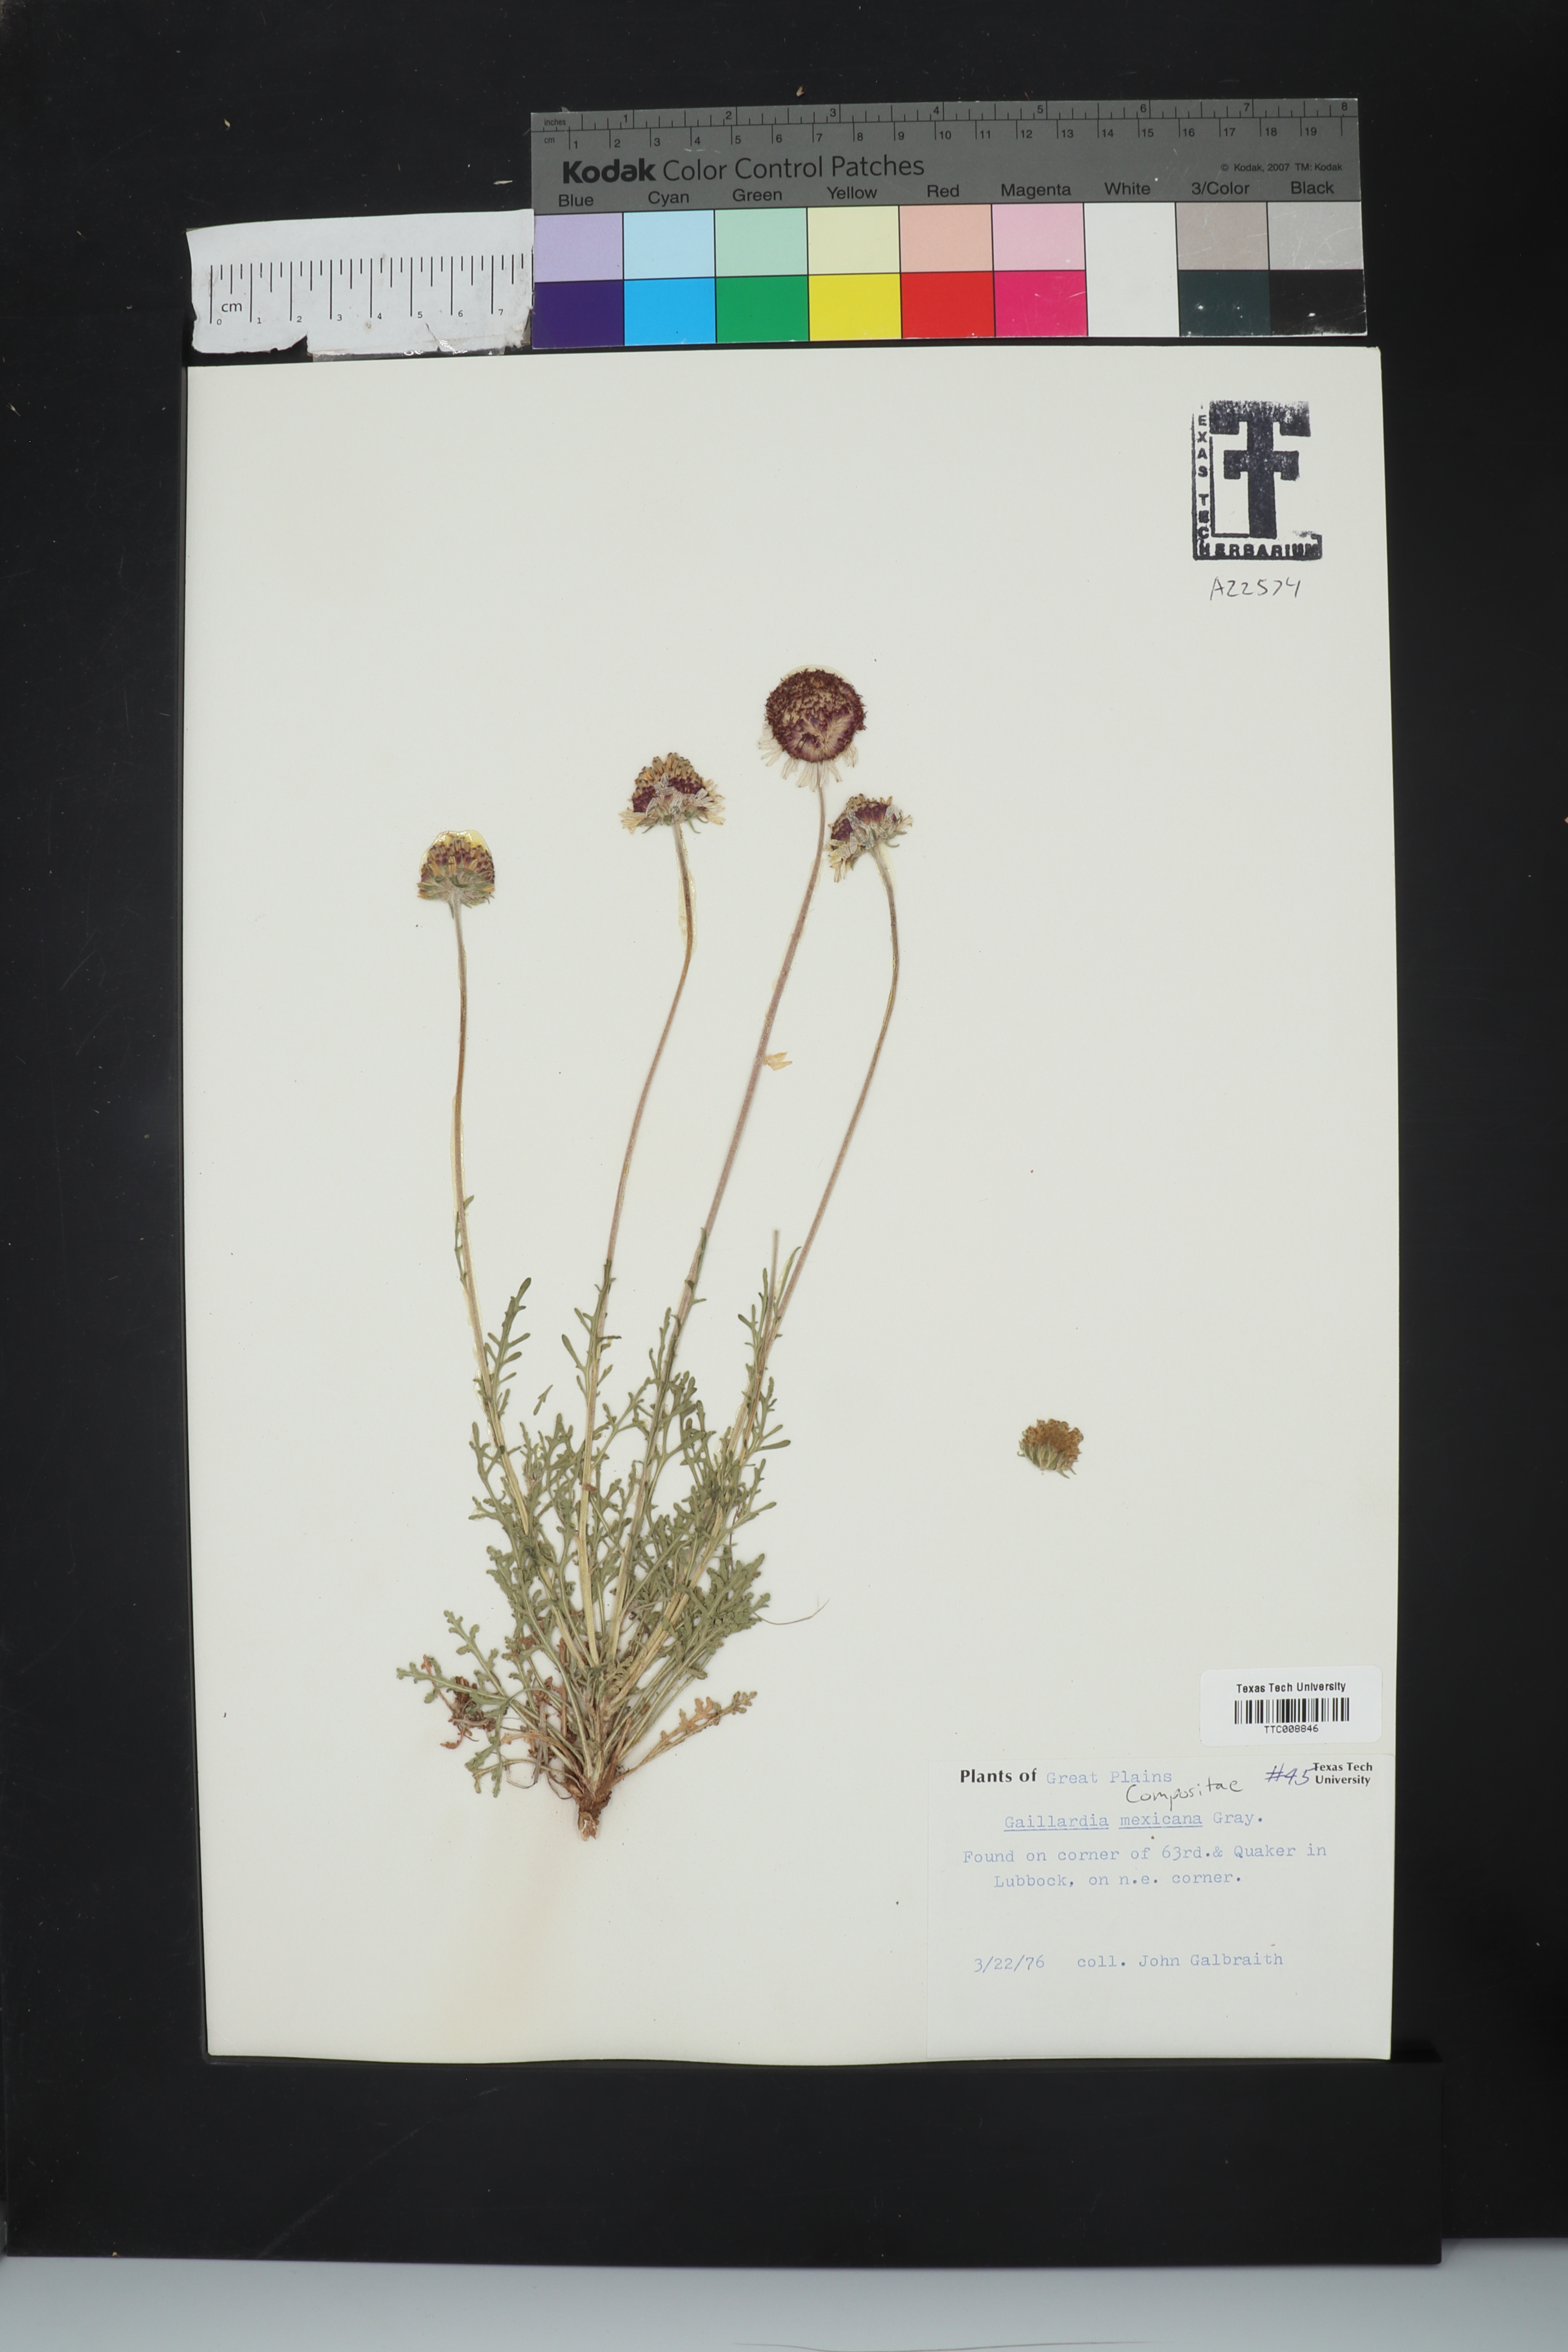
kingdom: Plantae
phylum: Tracheophyta
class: Magnoliopsida
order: Asterales
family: Asteraceae
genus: Gaillardia
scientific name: Gaillardia mexicana
